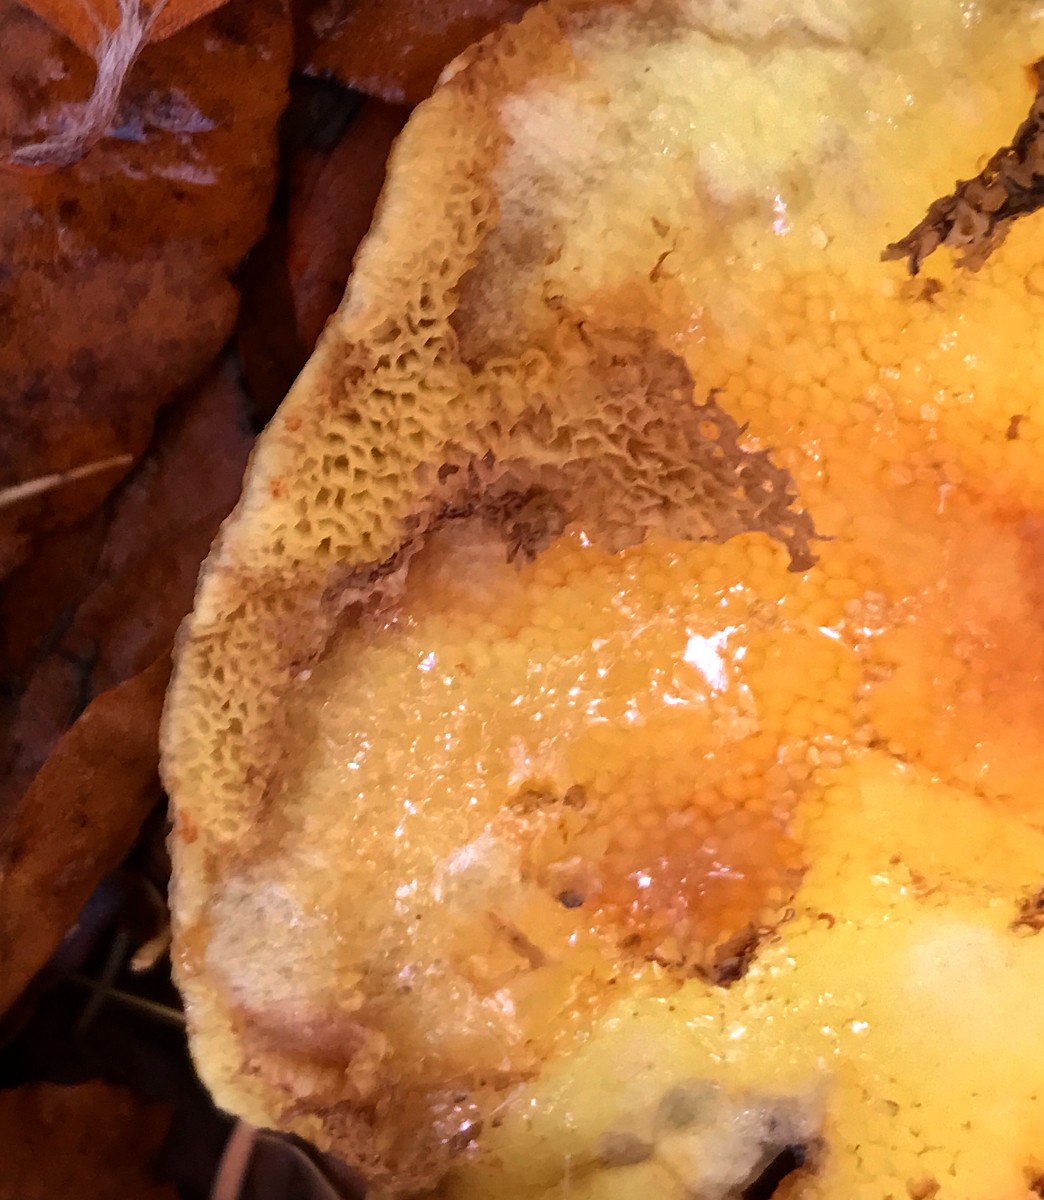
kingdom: Fungi
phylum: Basidiomycota
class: Agaricomycetes
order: Boletales
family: Suillaceae
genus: Suillus
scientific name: Suillus grevillei
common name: lærke-slimrørhat
